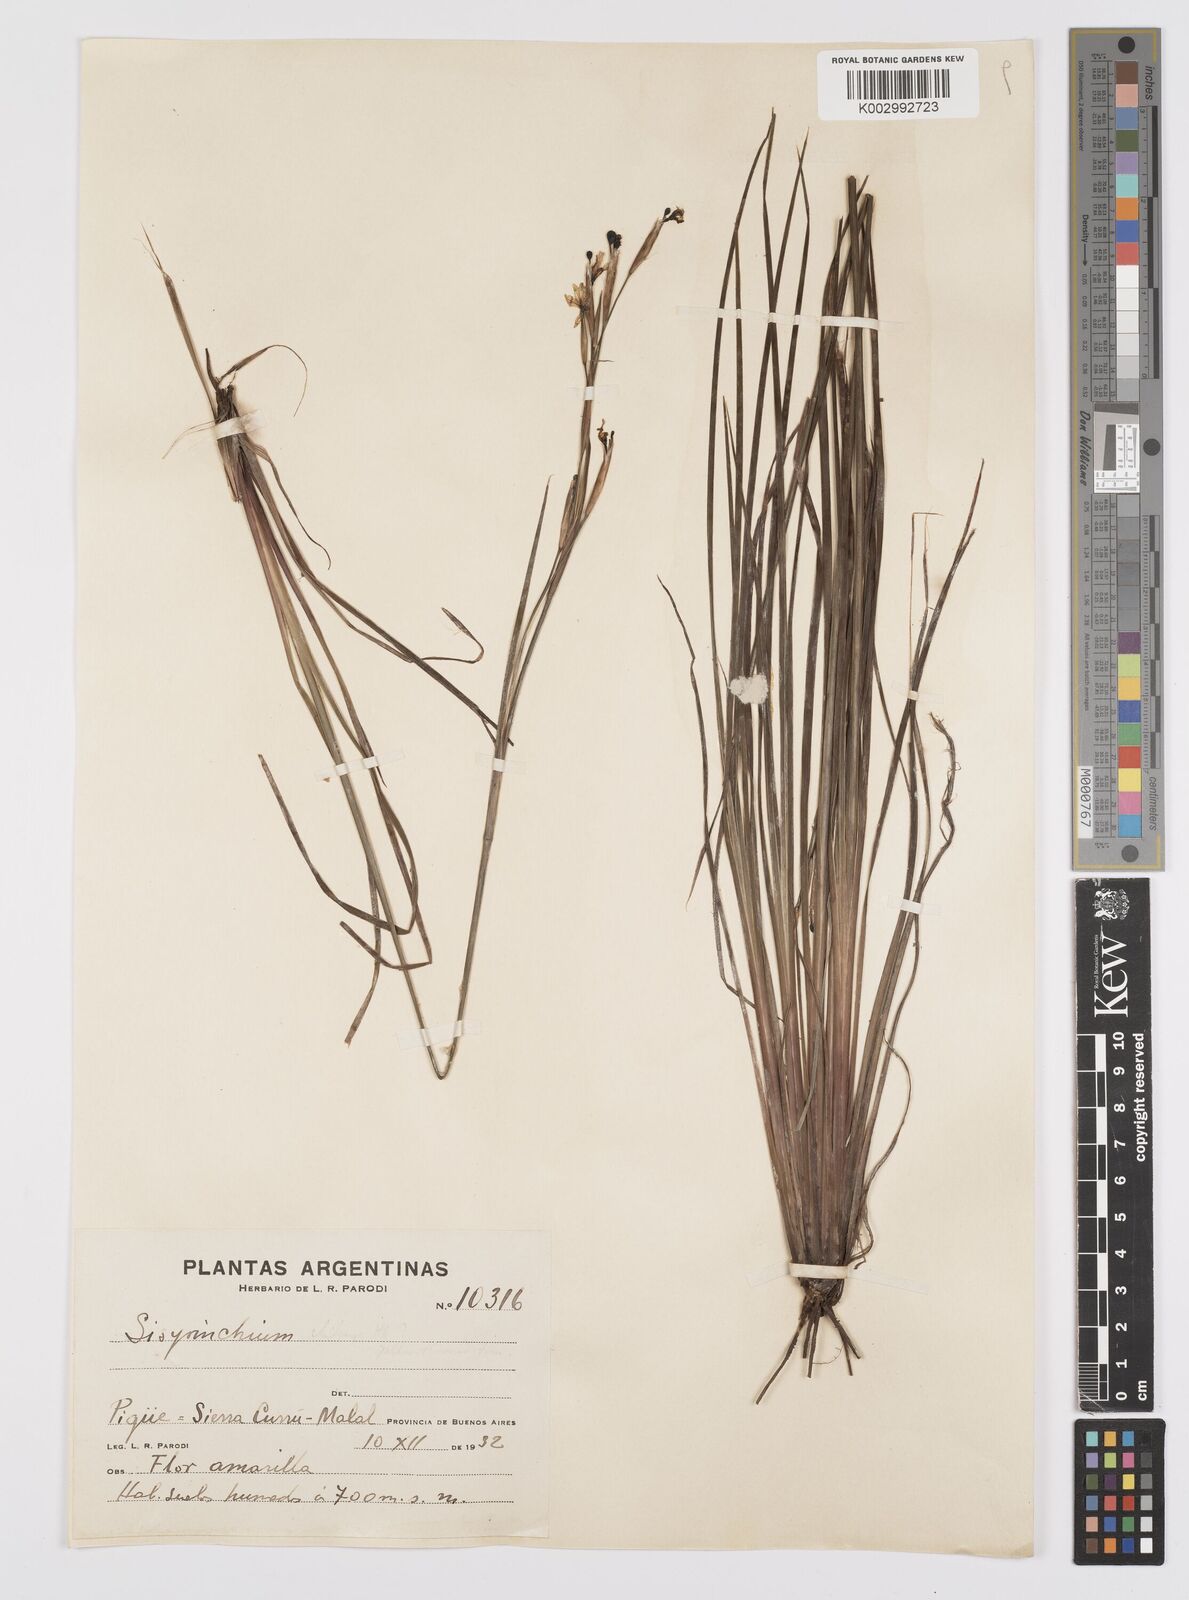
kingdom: Plantae
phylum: Tracheophyta
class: Liliopsida
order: Asparagales
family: Iridaceae
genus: Sisyrinchium
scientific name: Sisyrinchium chilense
